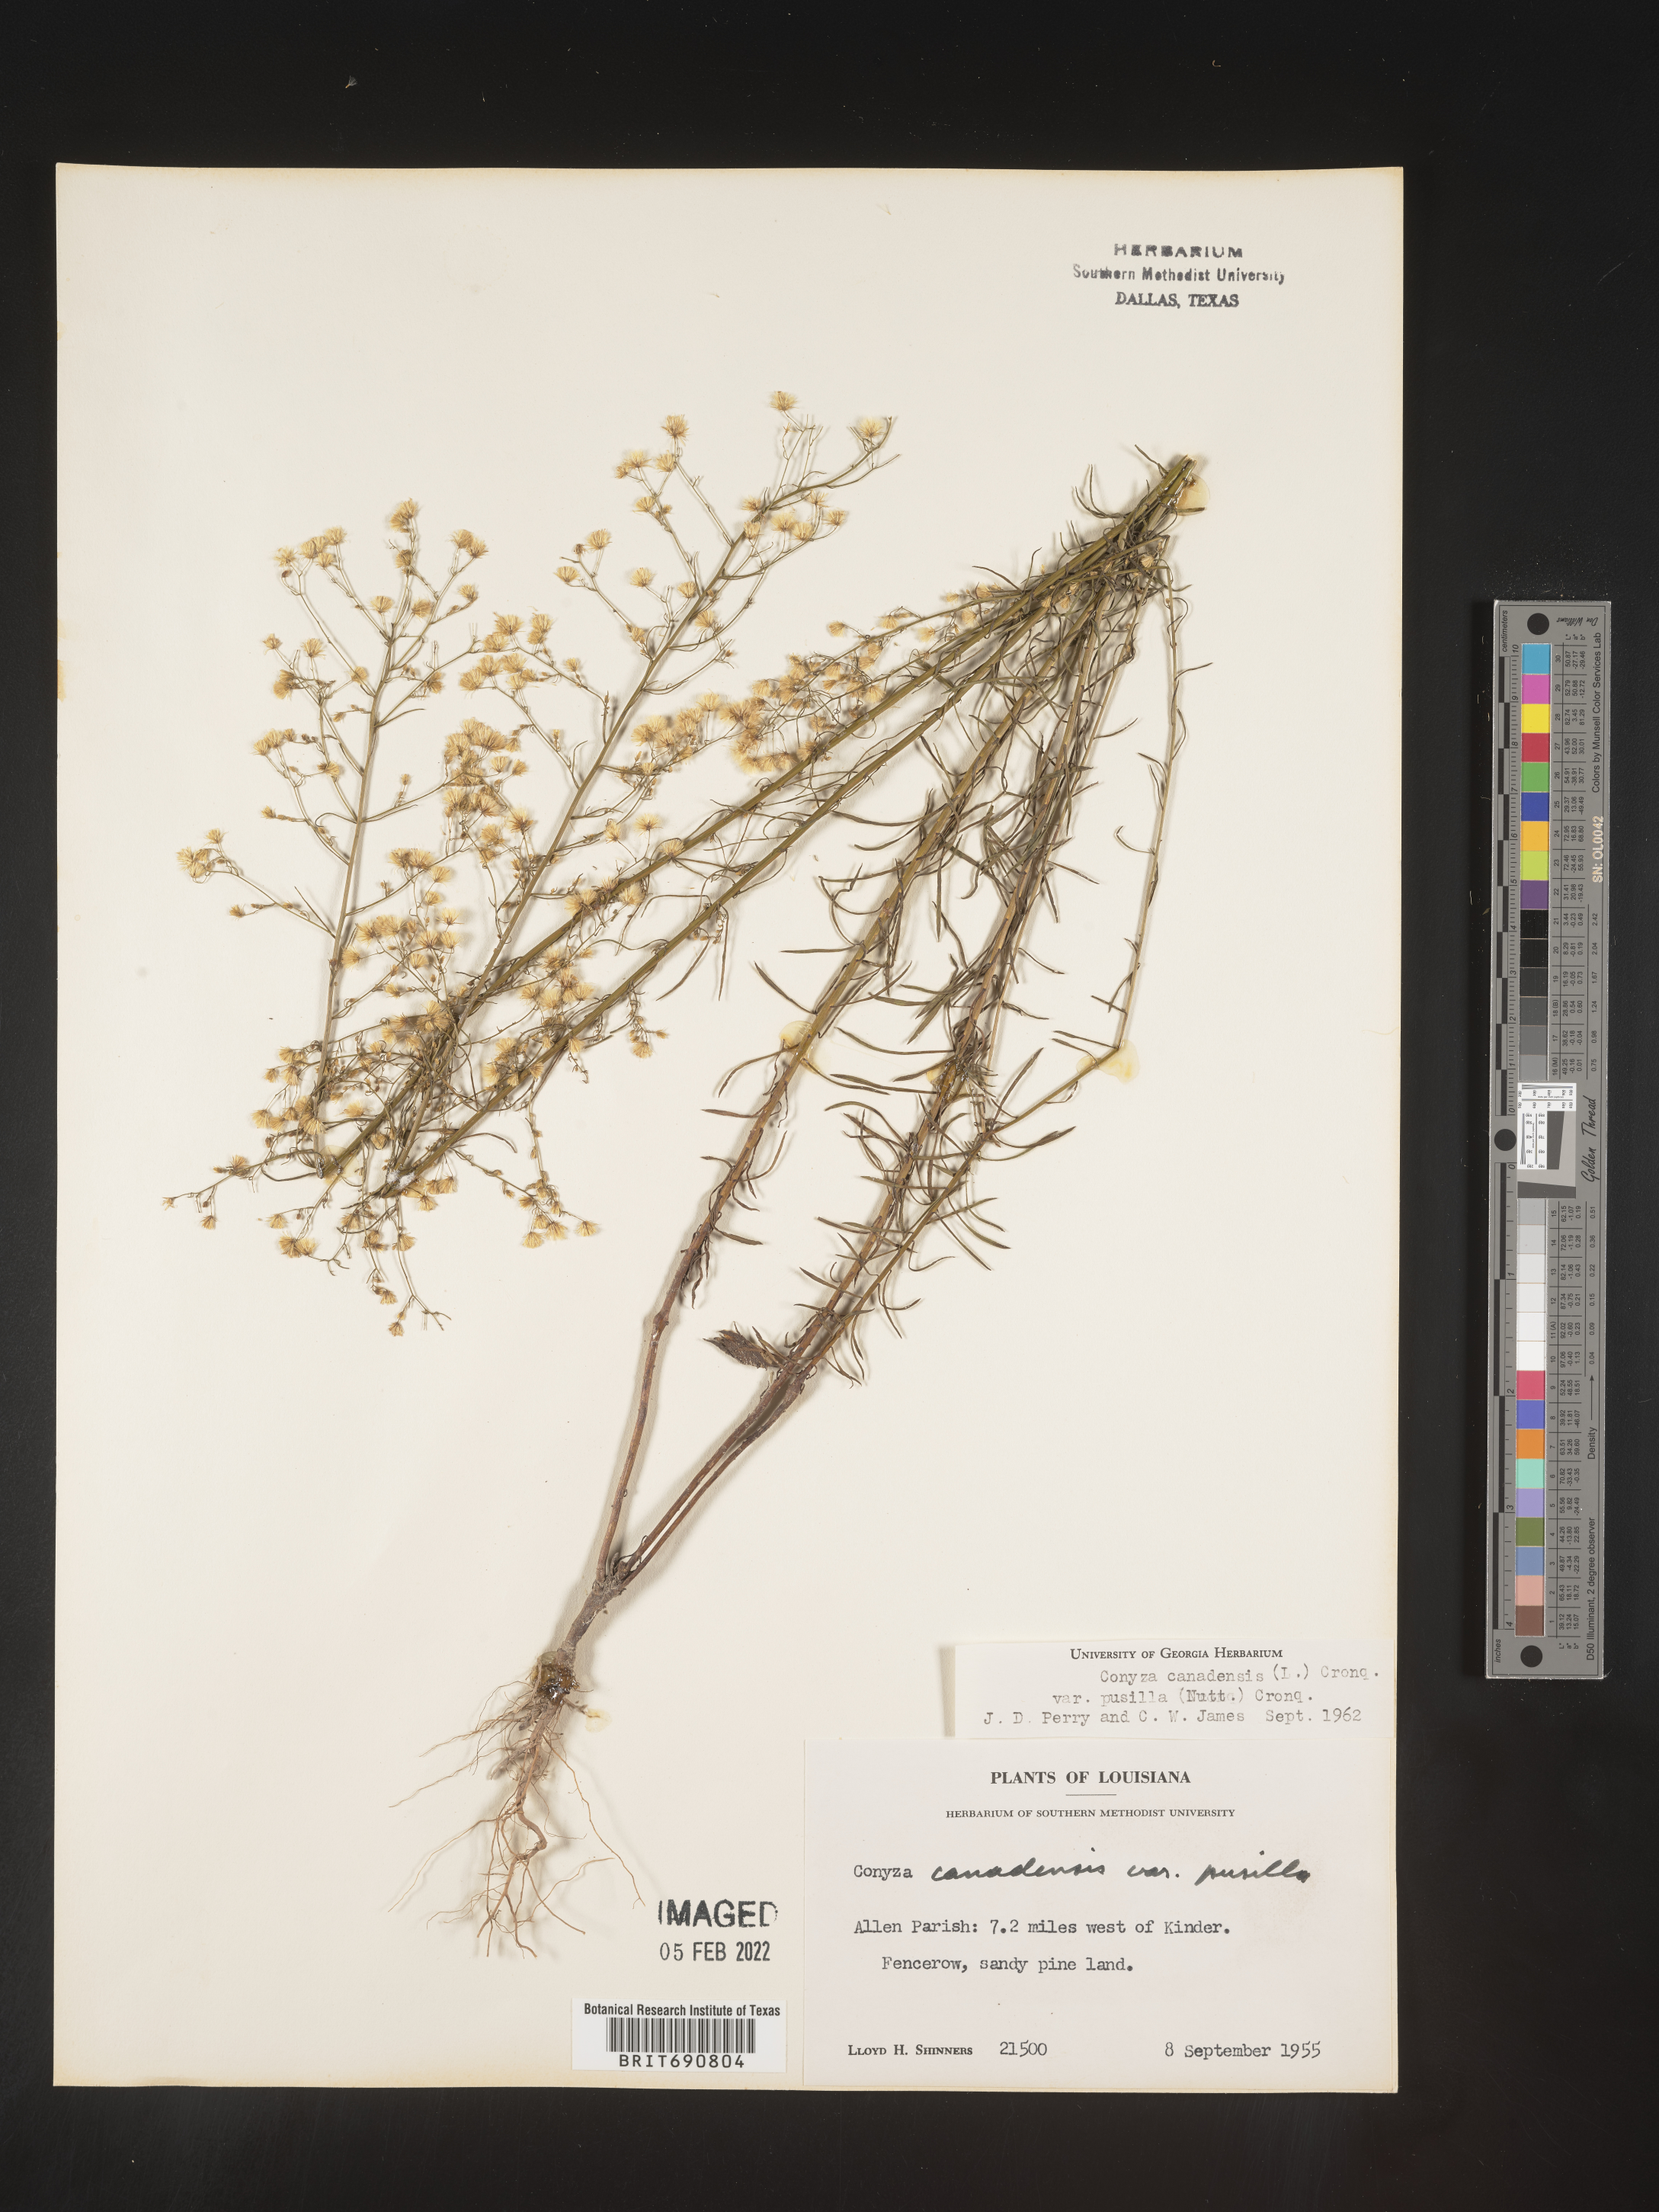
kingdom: Plantae
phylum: Tracheophyta
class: Magnoliopsida
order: Asterales
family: Asteraceae
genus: Erigeron
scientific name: Erigeron canadensis
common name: Canadian fleabane
